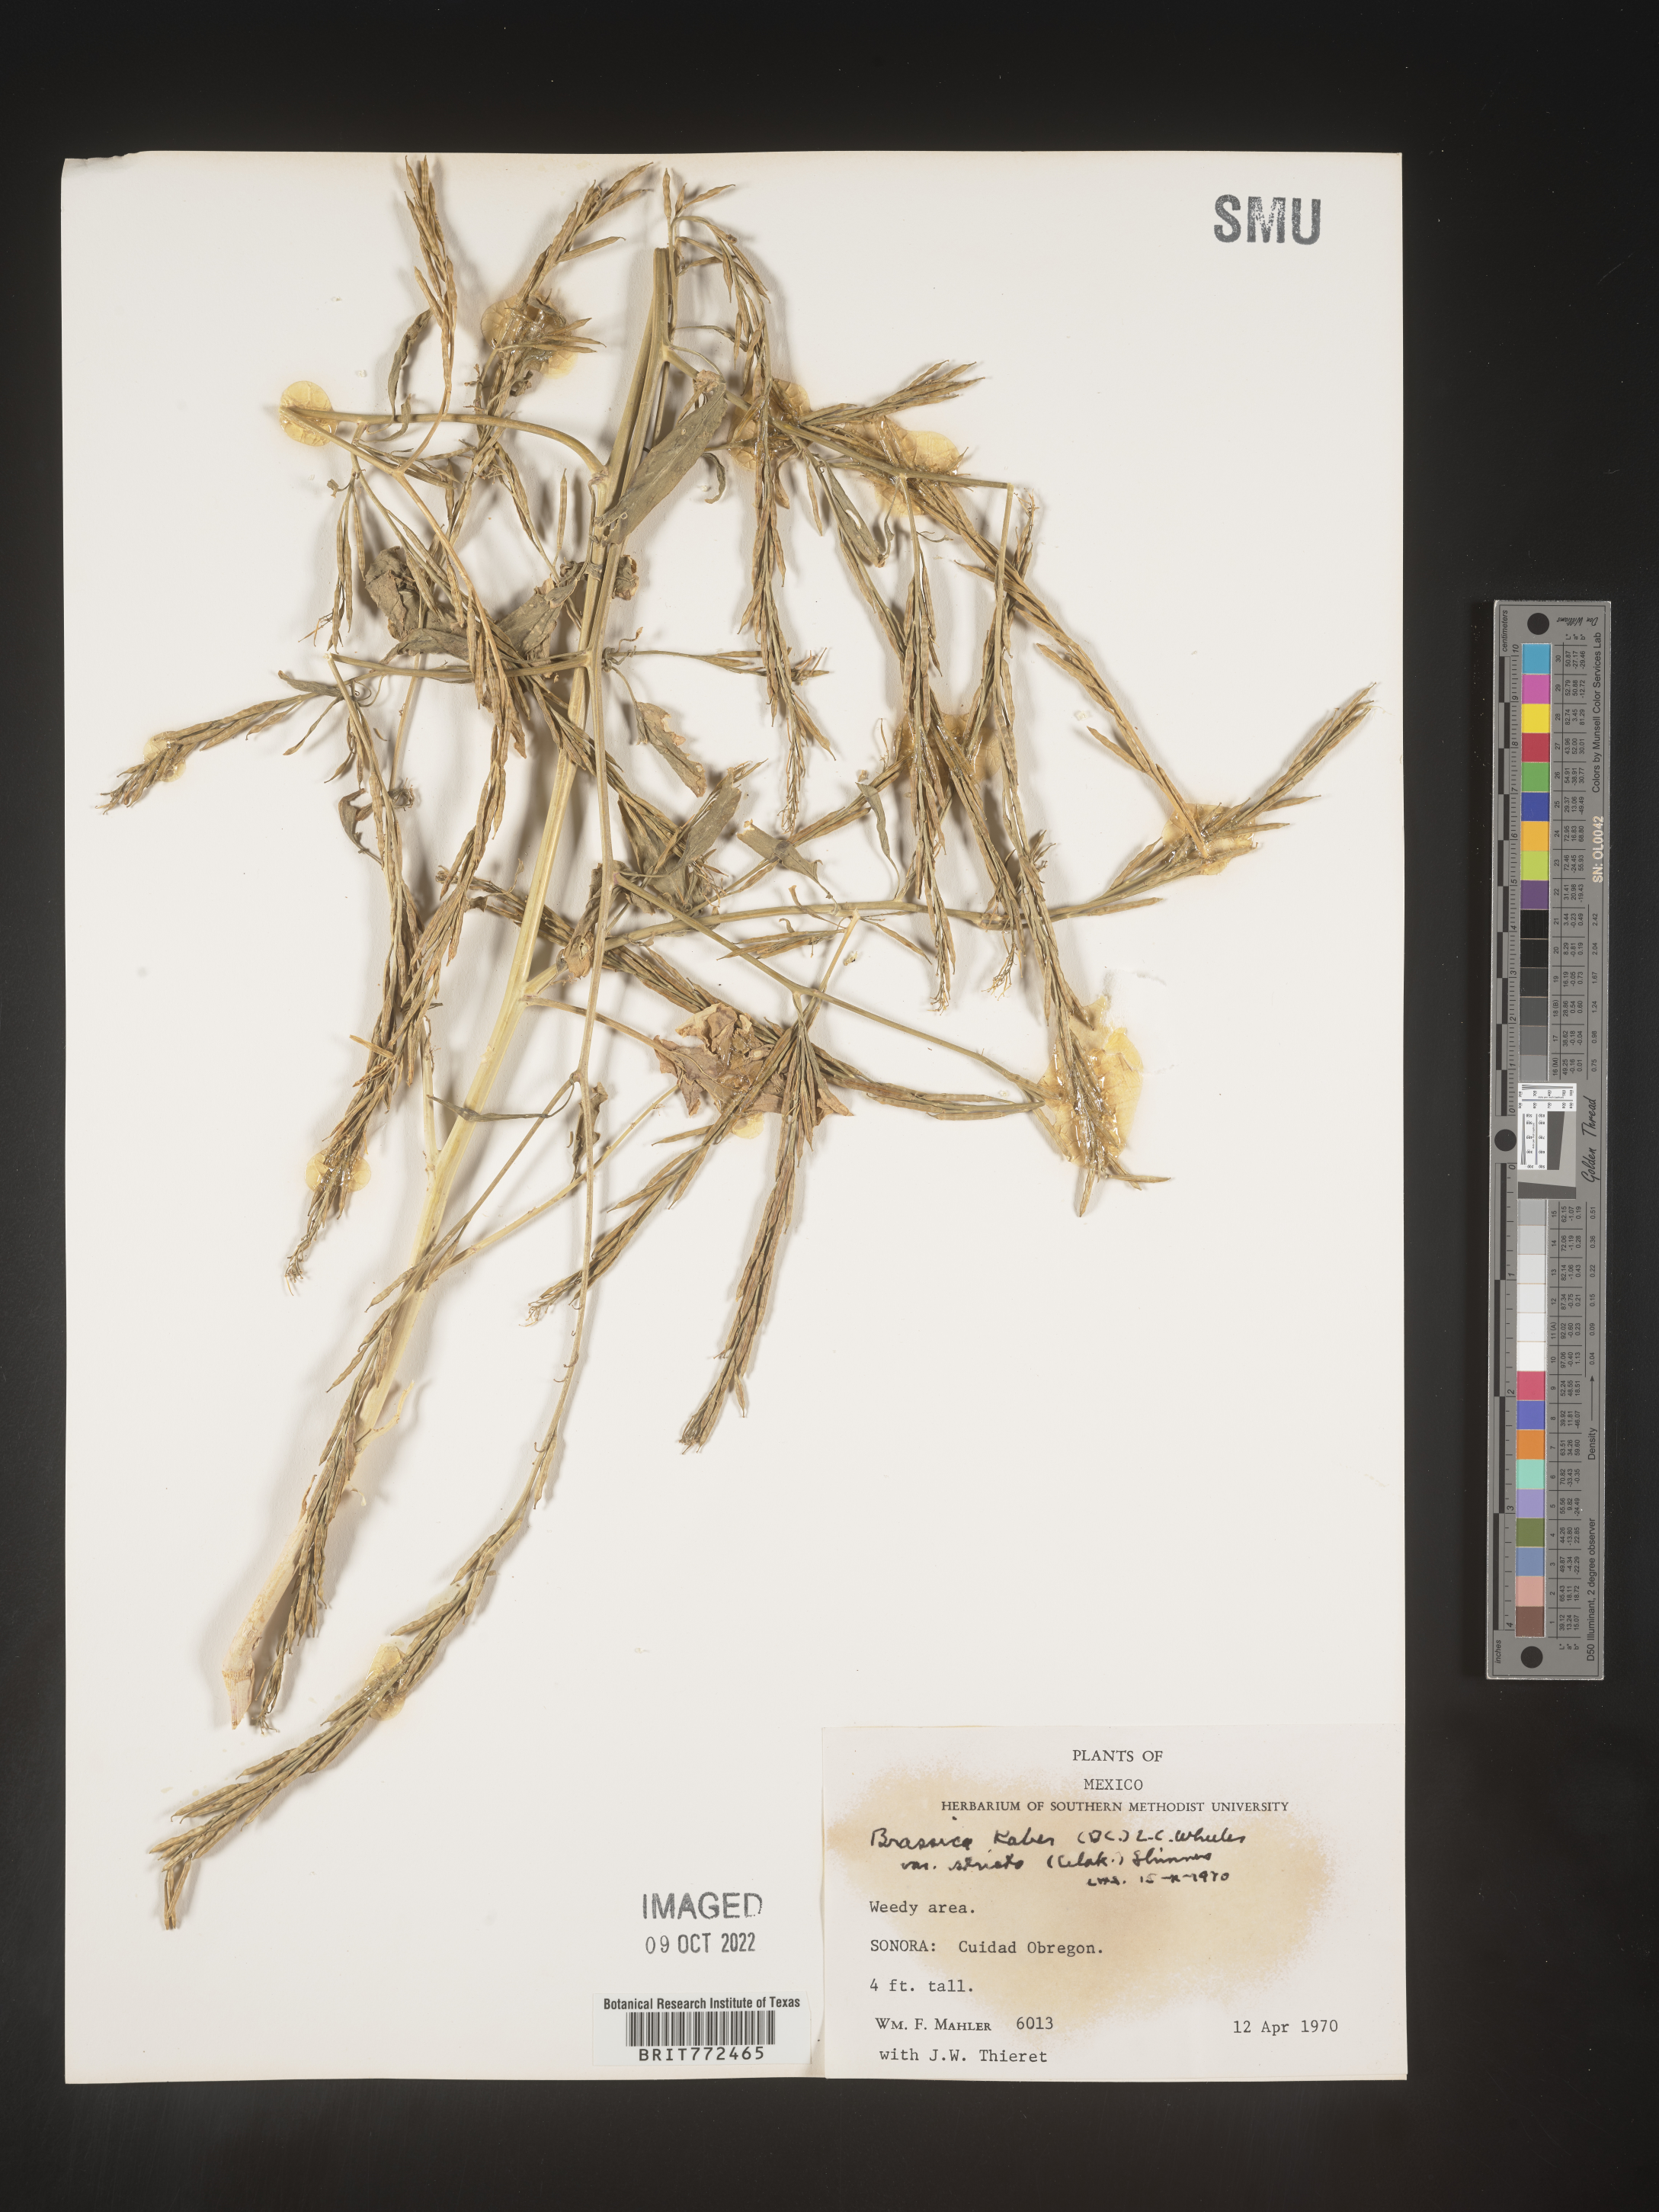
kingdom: Plantae
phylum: Tracheophyta
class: Magnoliopsida
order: Brassicales
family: Brassicaceae
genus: Brassica
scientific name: Brassica
